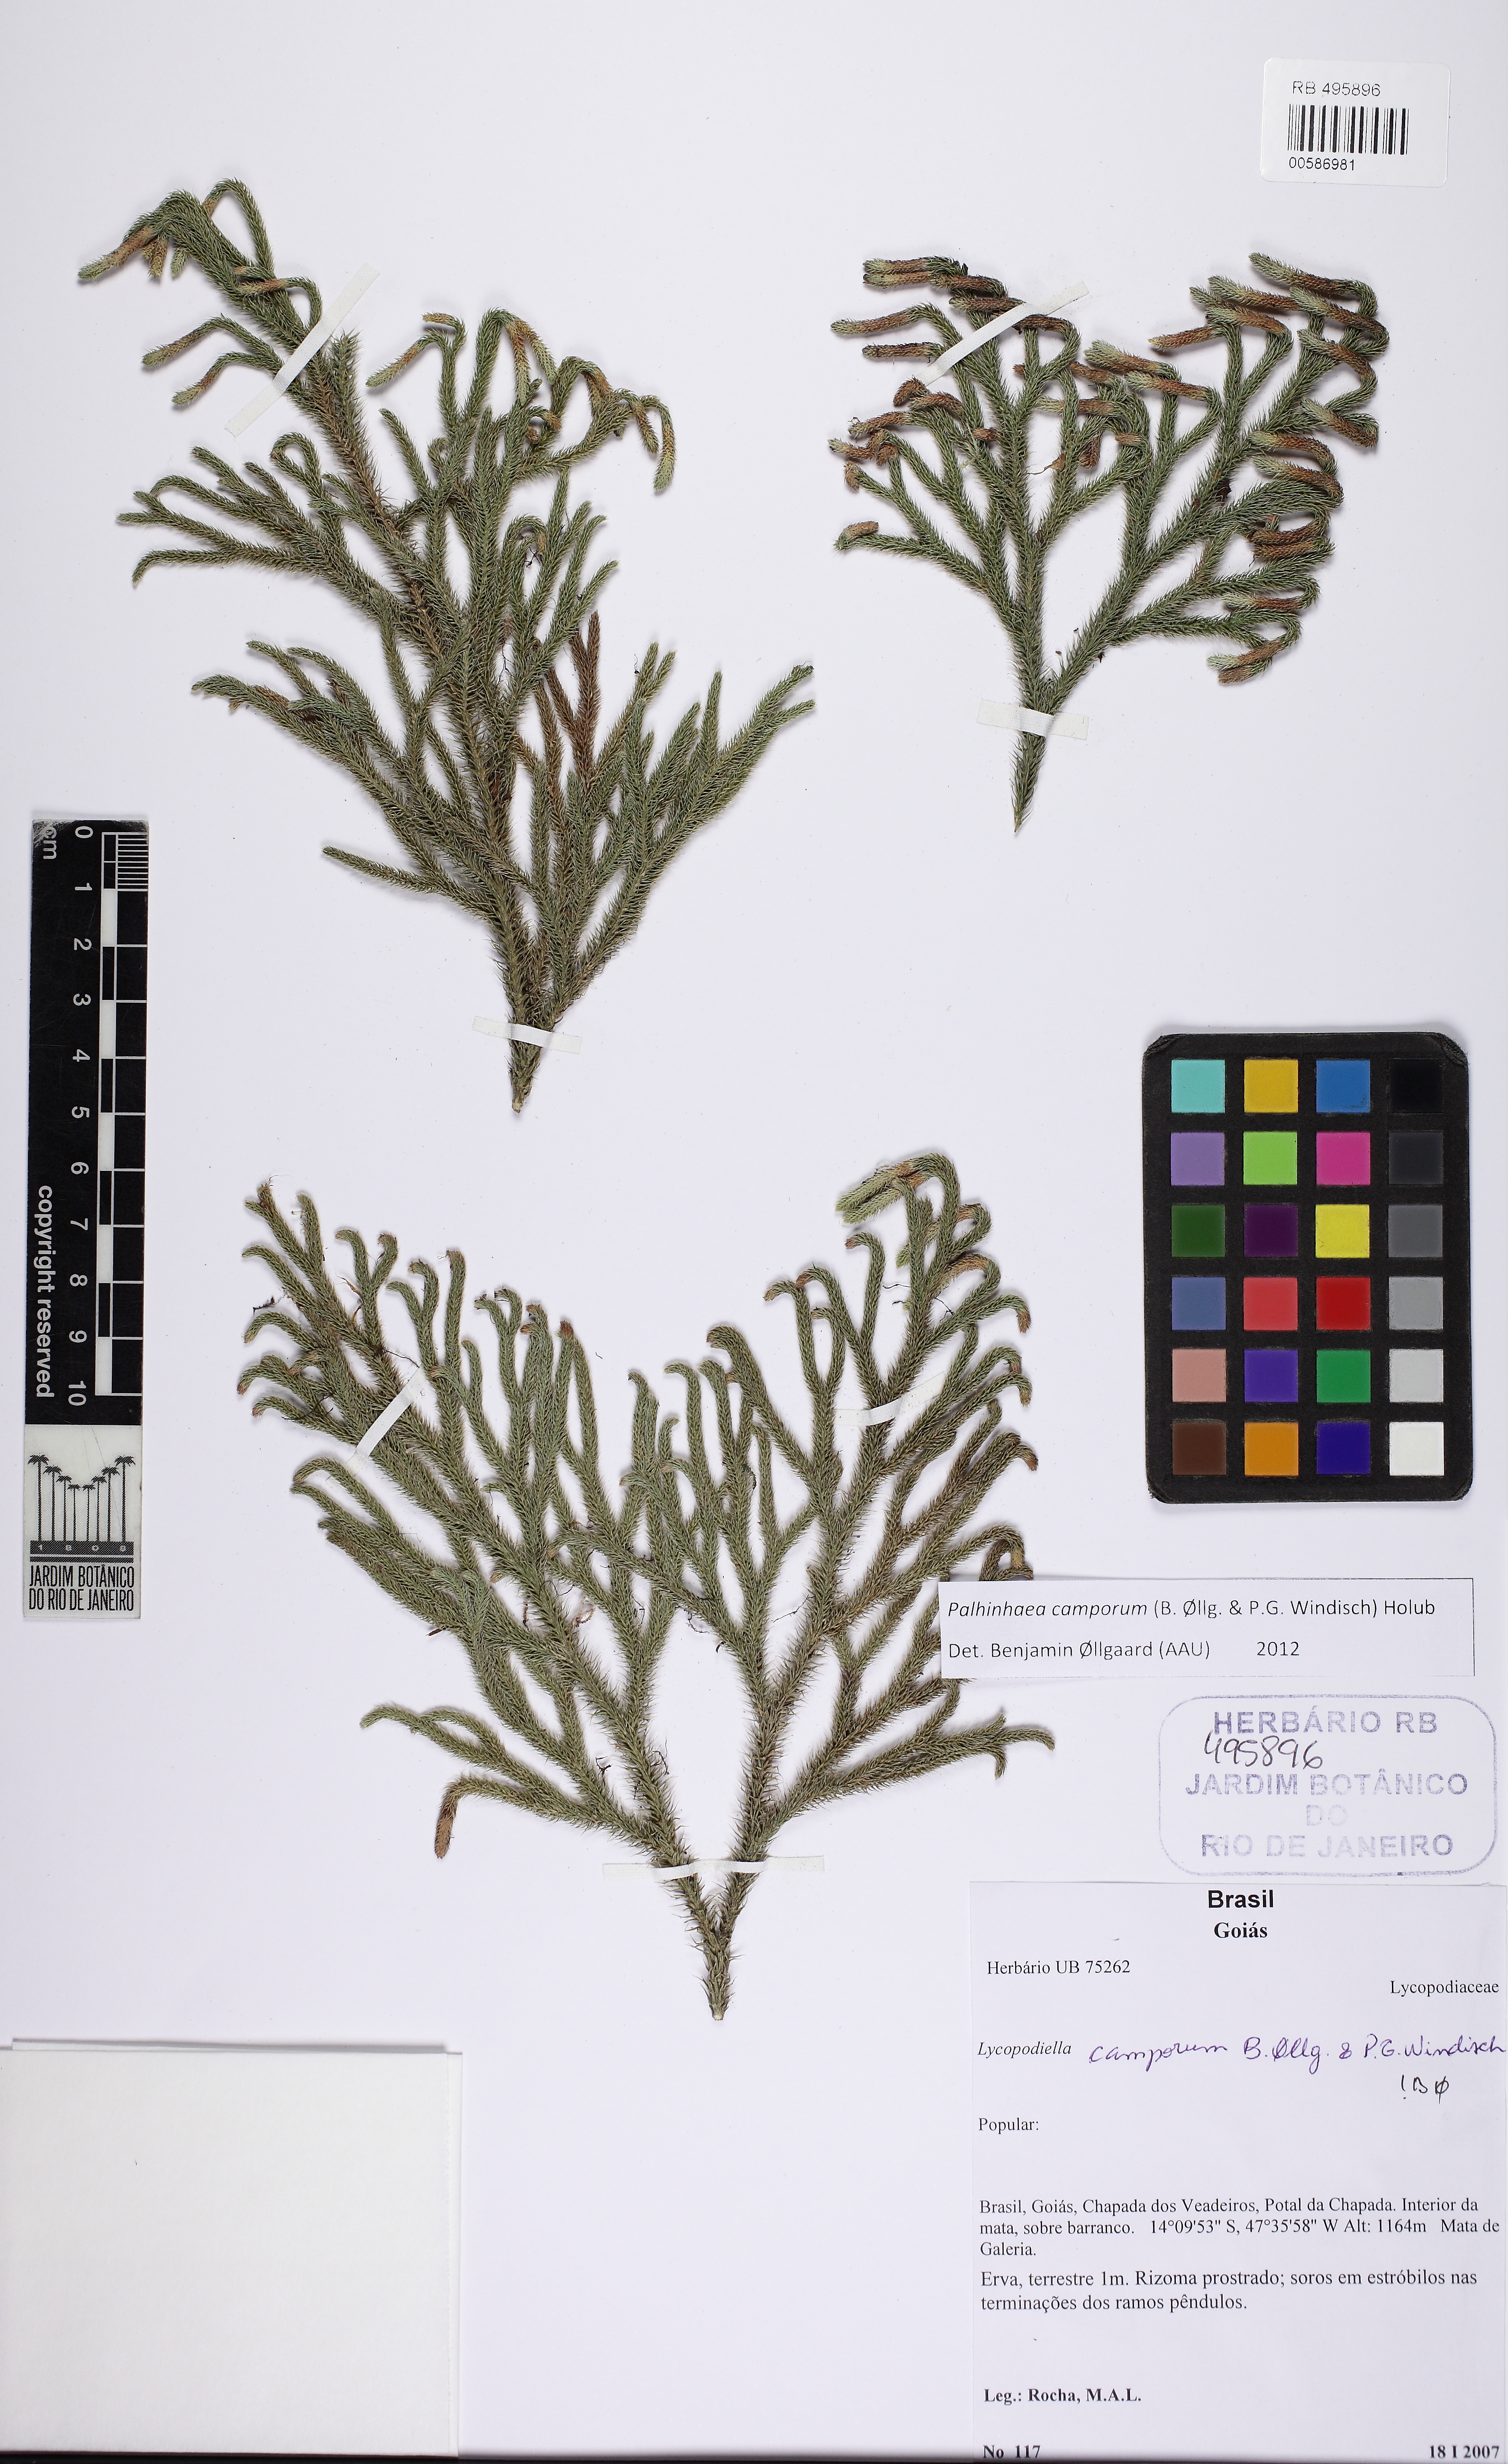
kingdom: Plantae
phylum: Tracheophyta
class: Lycopodiopsida
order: Lycopodiales
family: Lycopodiaceae
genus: Palhinhaea
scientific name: Palhinhaea camporum
